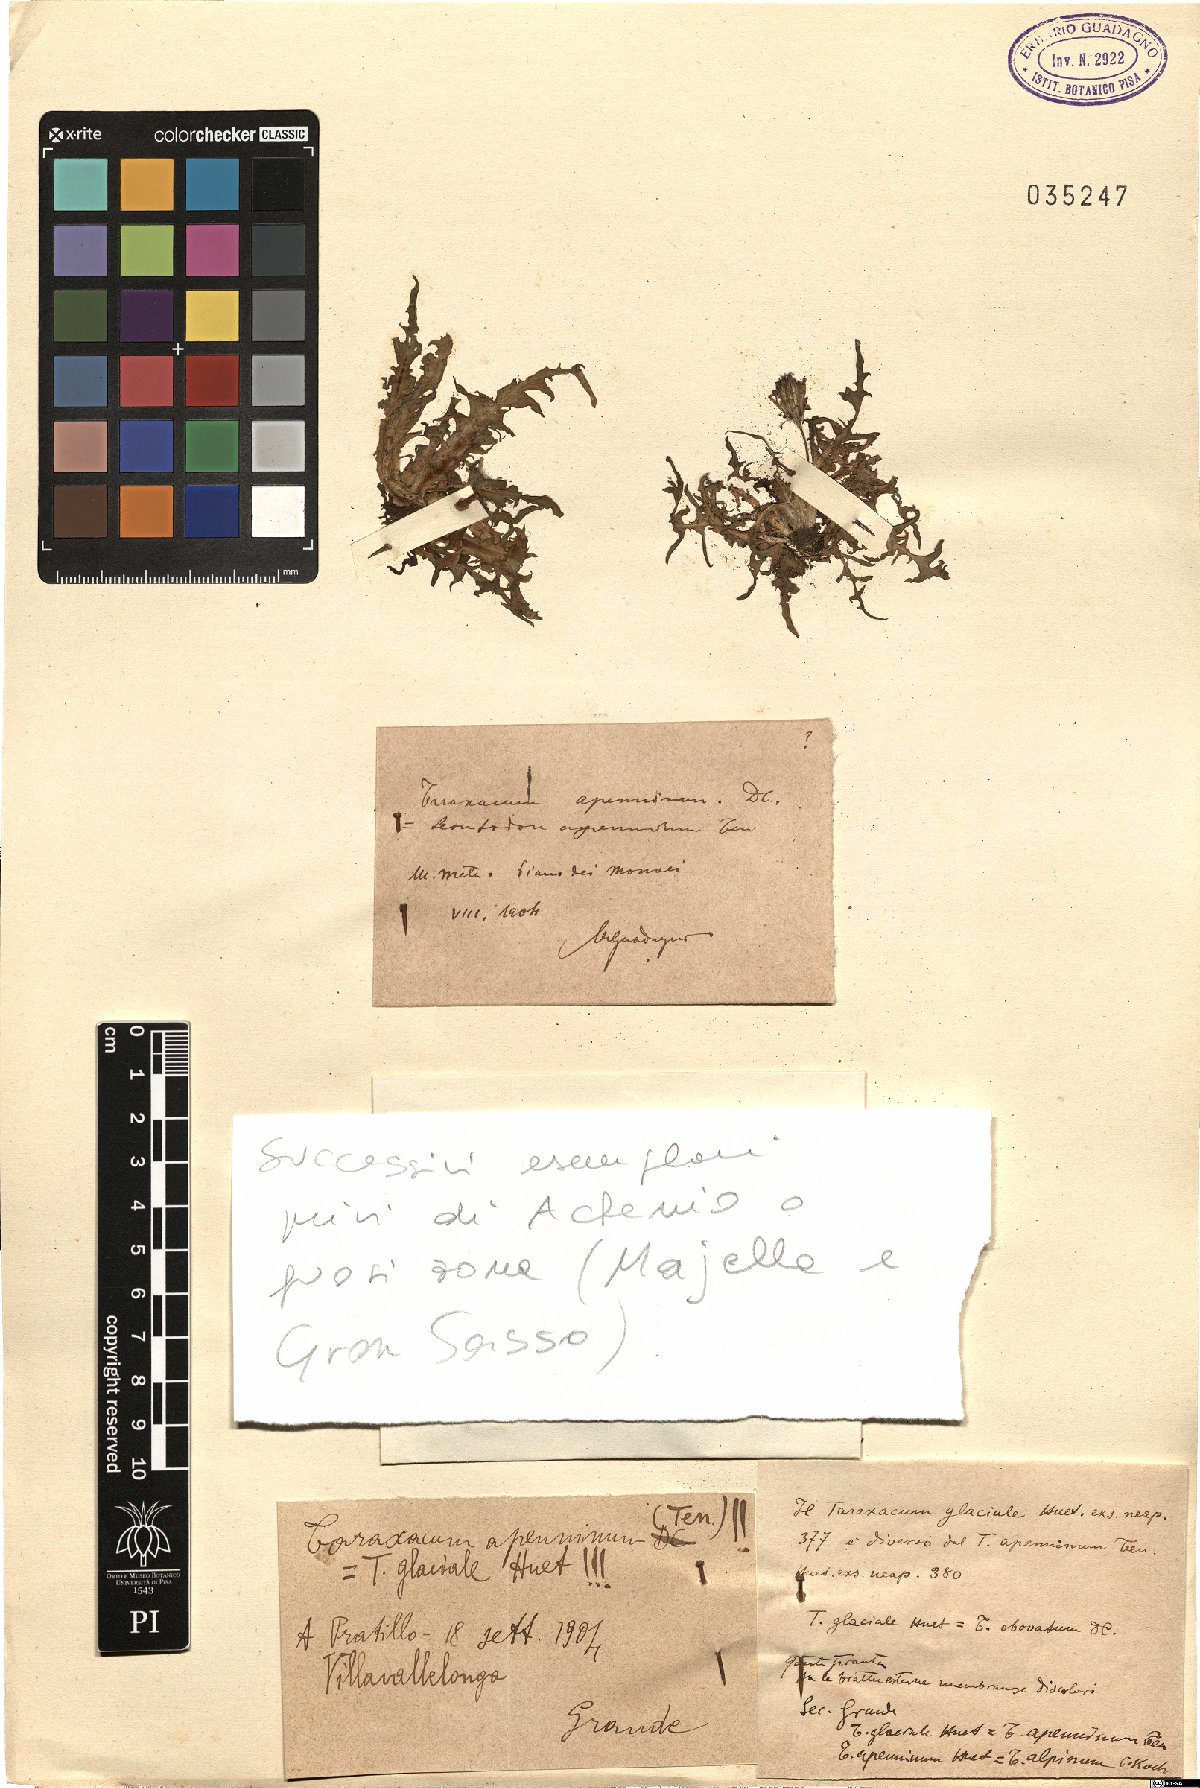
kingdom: Plantae
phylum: Tracheophyta
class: Magnoliopsida
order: Asterales
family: Asteraceae
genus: Taraxacum
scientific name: Taraxacum apenninum
